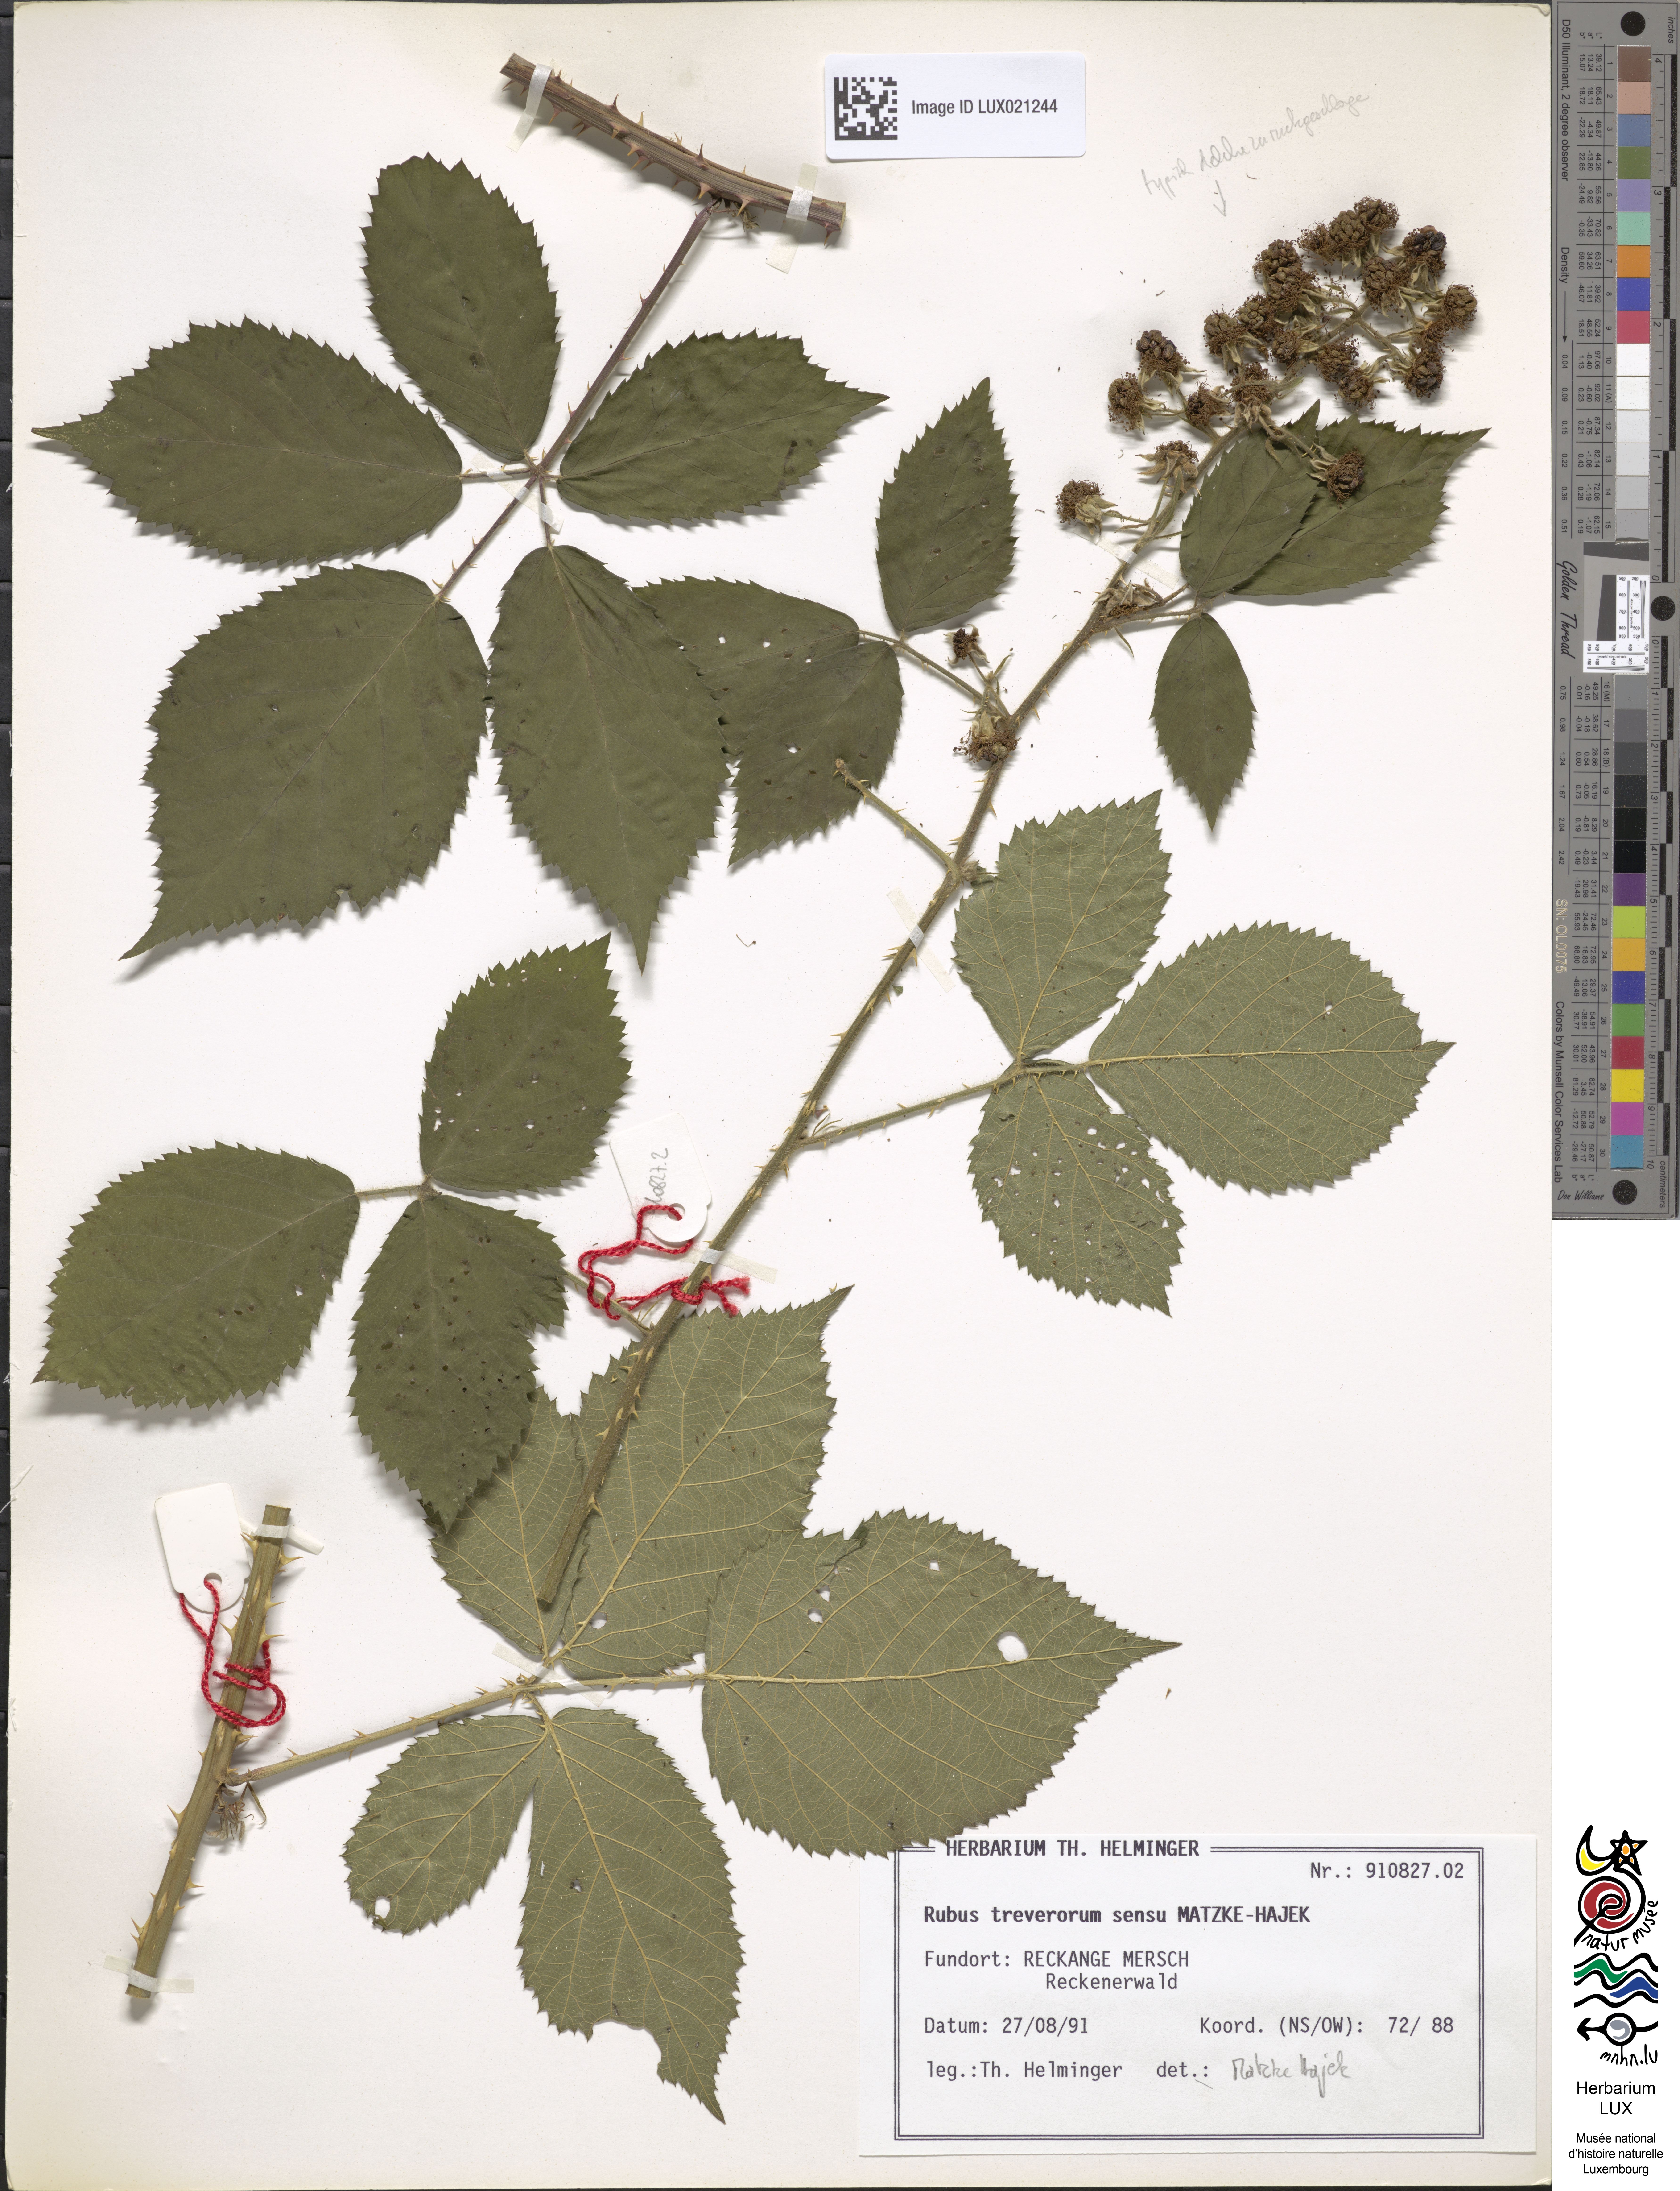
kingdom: Plantae
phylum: Tracheophyta
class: Magnoliopsida
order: Rosales
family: Rosaceae
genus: Rubus
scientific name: Rubus
